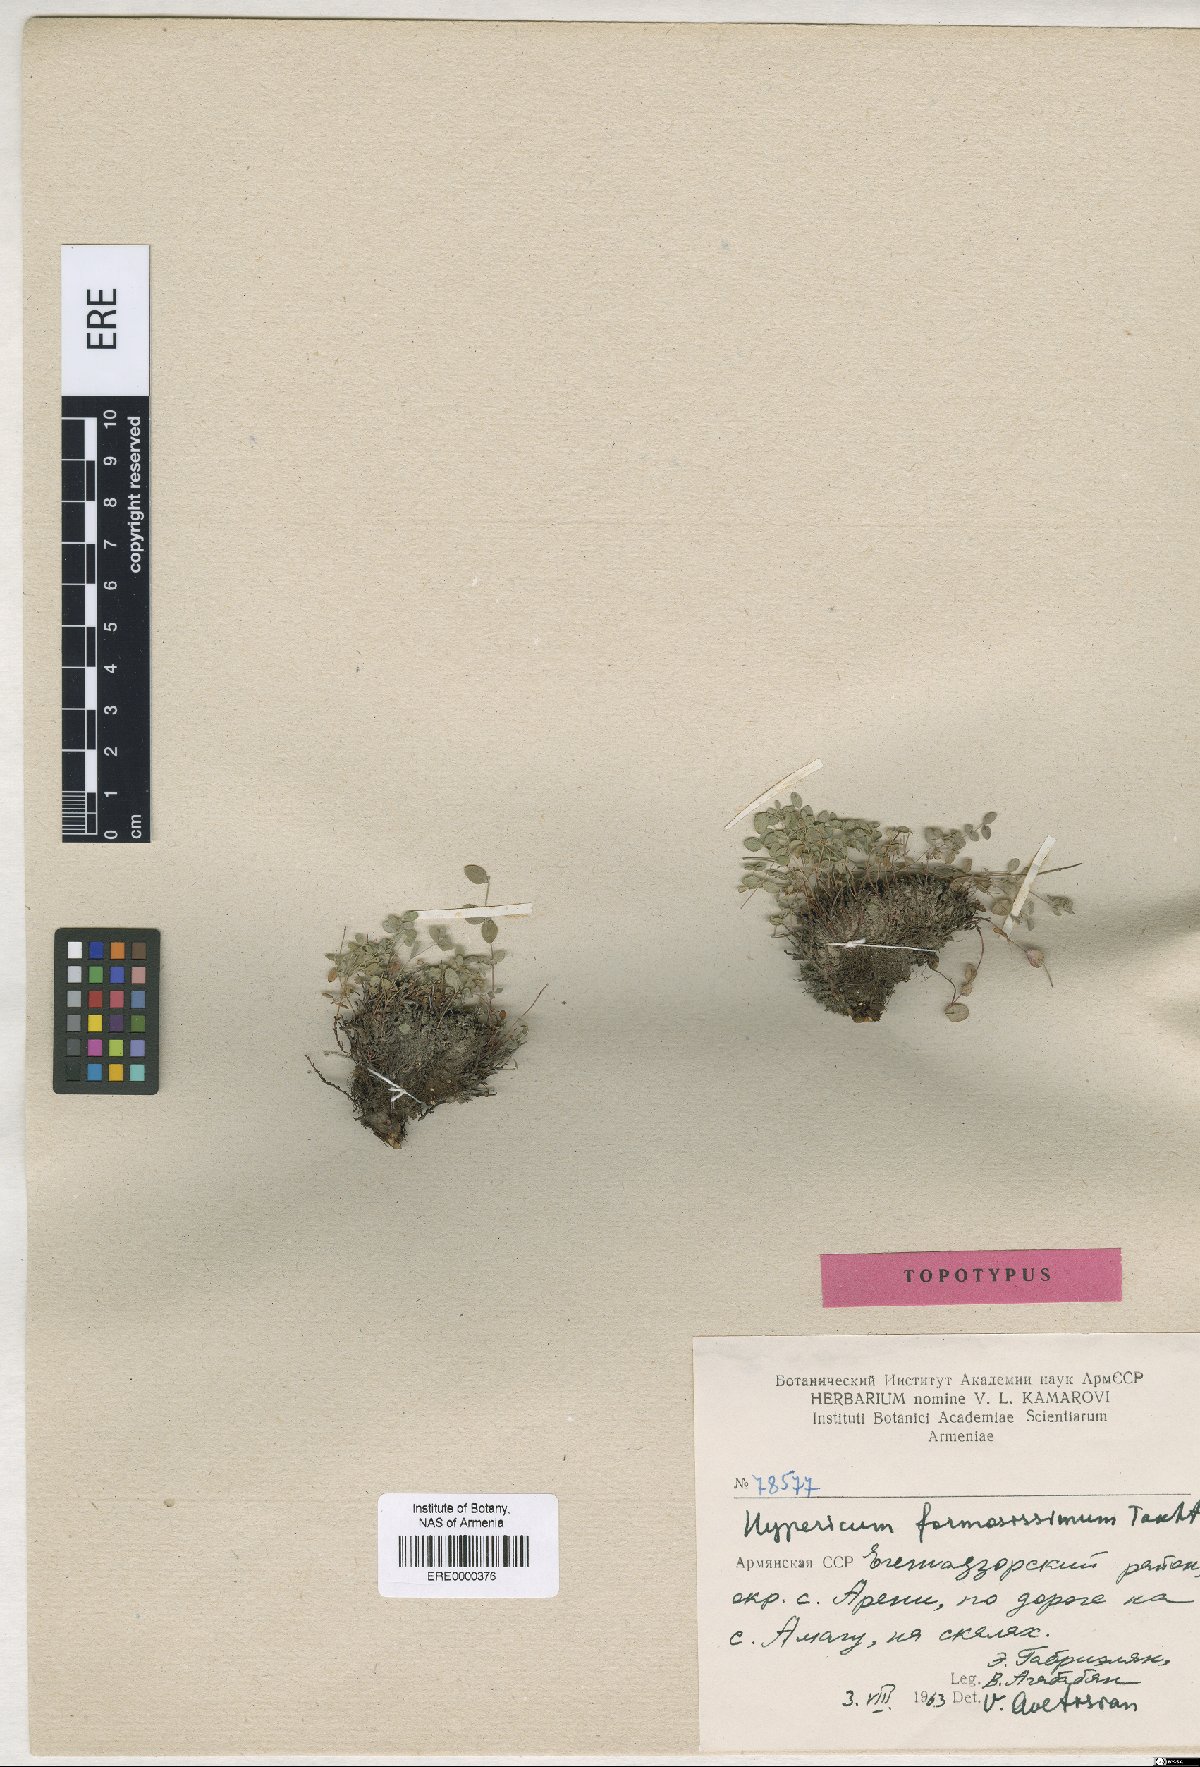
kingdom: Plantae
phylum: Tracheophyta
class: Magnoliopsida
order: Malpighiales
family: Hypericaceae
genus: Hypericum
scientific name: Hypericum formosissimum
